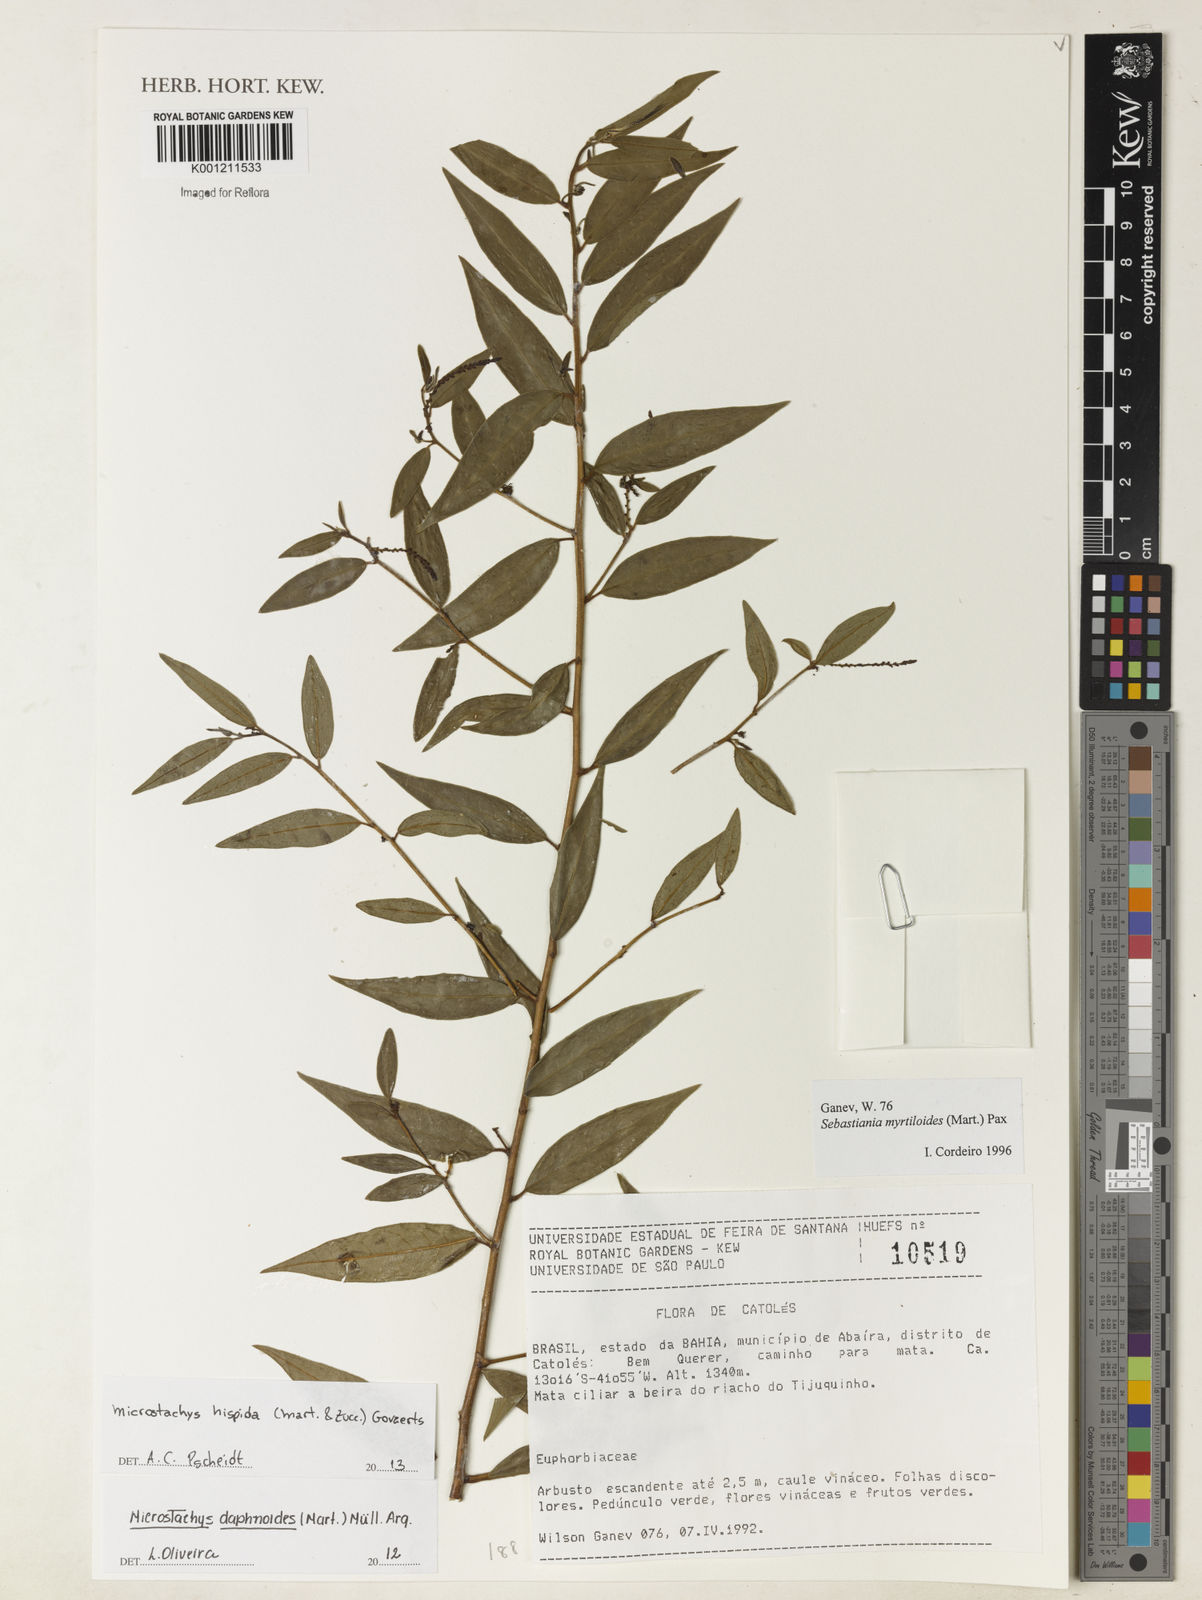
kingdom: Plantae
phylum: Tracheophyta
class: Magnoliopsida
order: Malpighiales
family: Euphorbiaceae
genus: Microstachys
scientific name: Microstachys hispida
